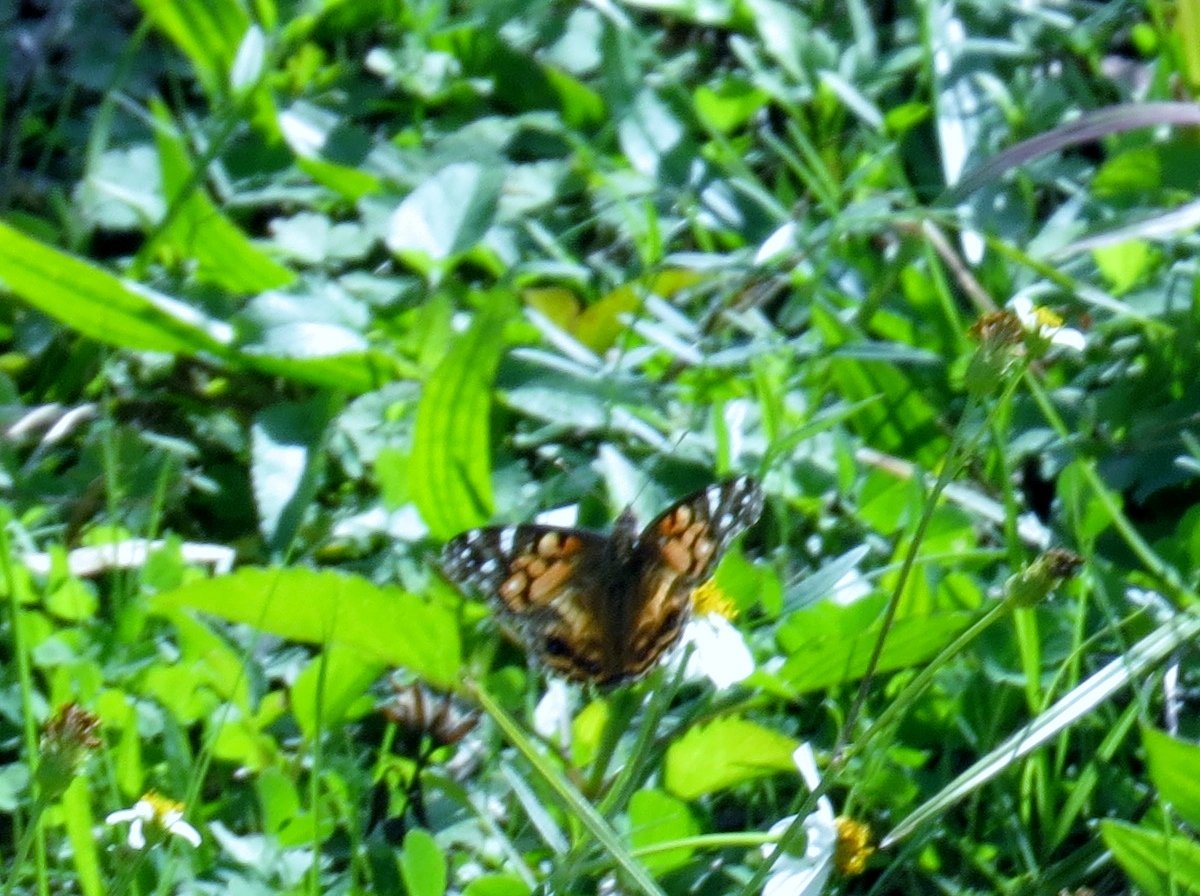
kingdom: Animalia
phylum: Arthropoda
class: Insecta
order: Lepidoptera
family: Nymphalidae
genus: Vanessa
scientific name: Vanessa virginiensis
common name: American Lady
